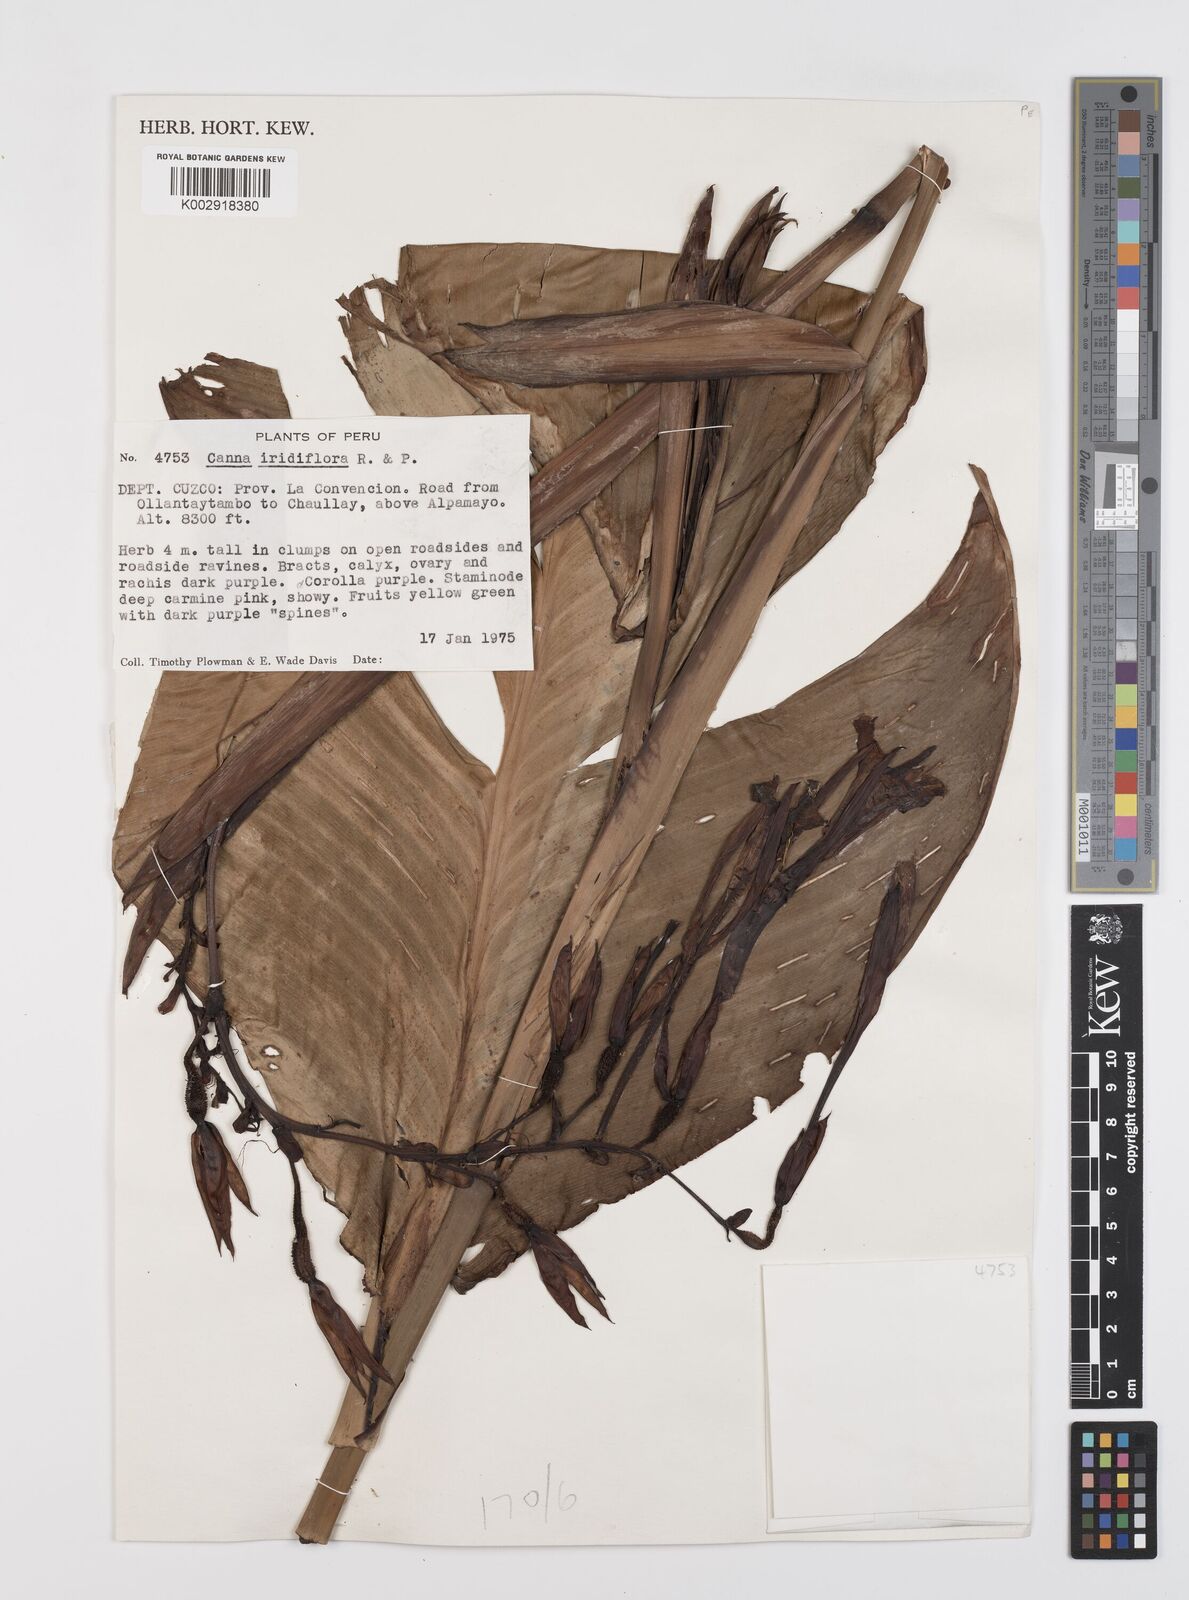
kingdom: Plantae
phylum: Tracheophyta
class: Liliopsida
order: Zingiberales
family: Cannaceae
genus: Canna
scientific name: Canna iridiflora
